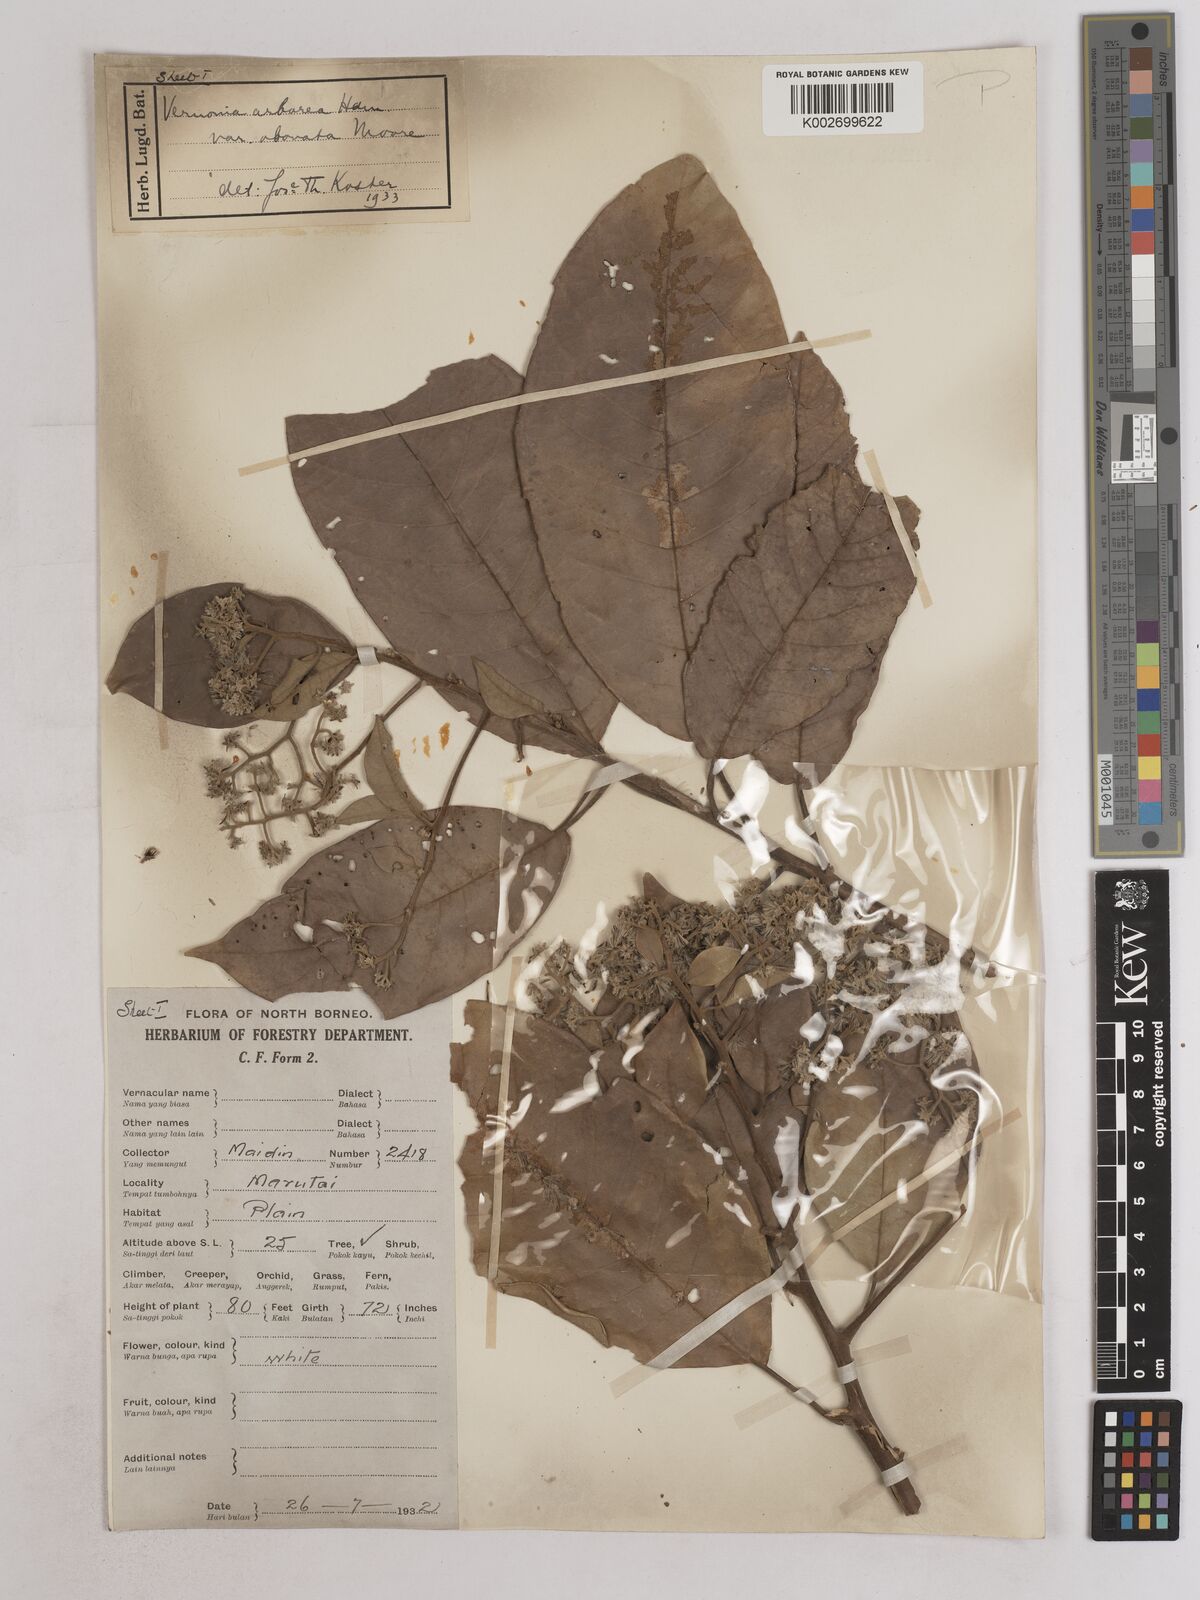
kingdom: Plantae
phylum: Tracheophyta
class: Magnoliopsida
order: Asterales
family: Asteraceae
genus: Strobocalyx
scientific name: Strobocalyx arborea
